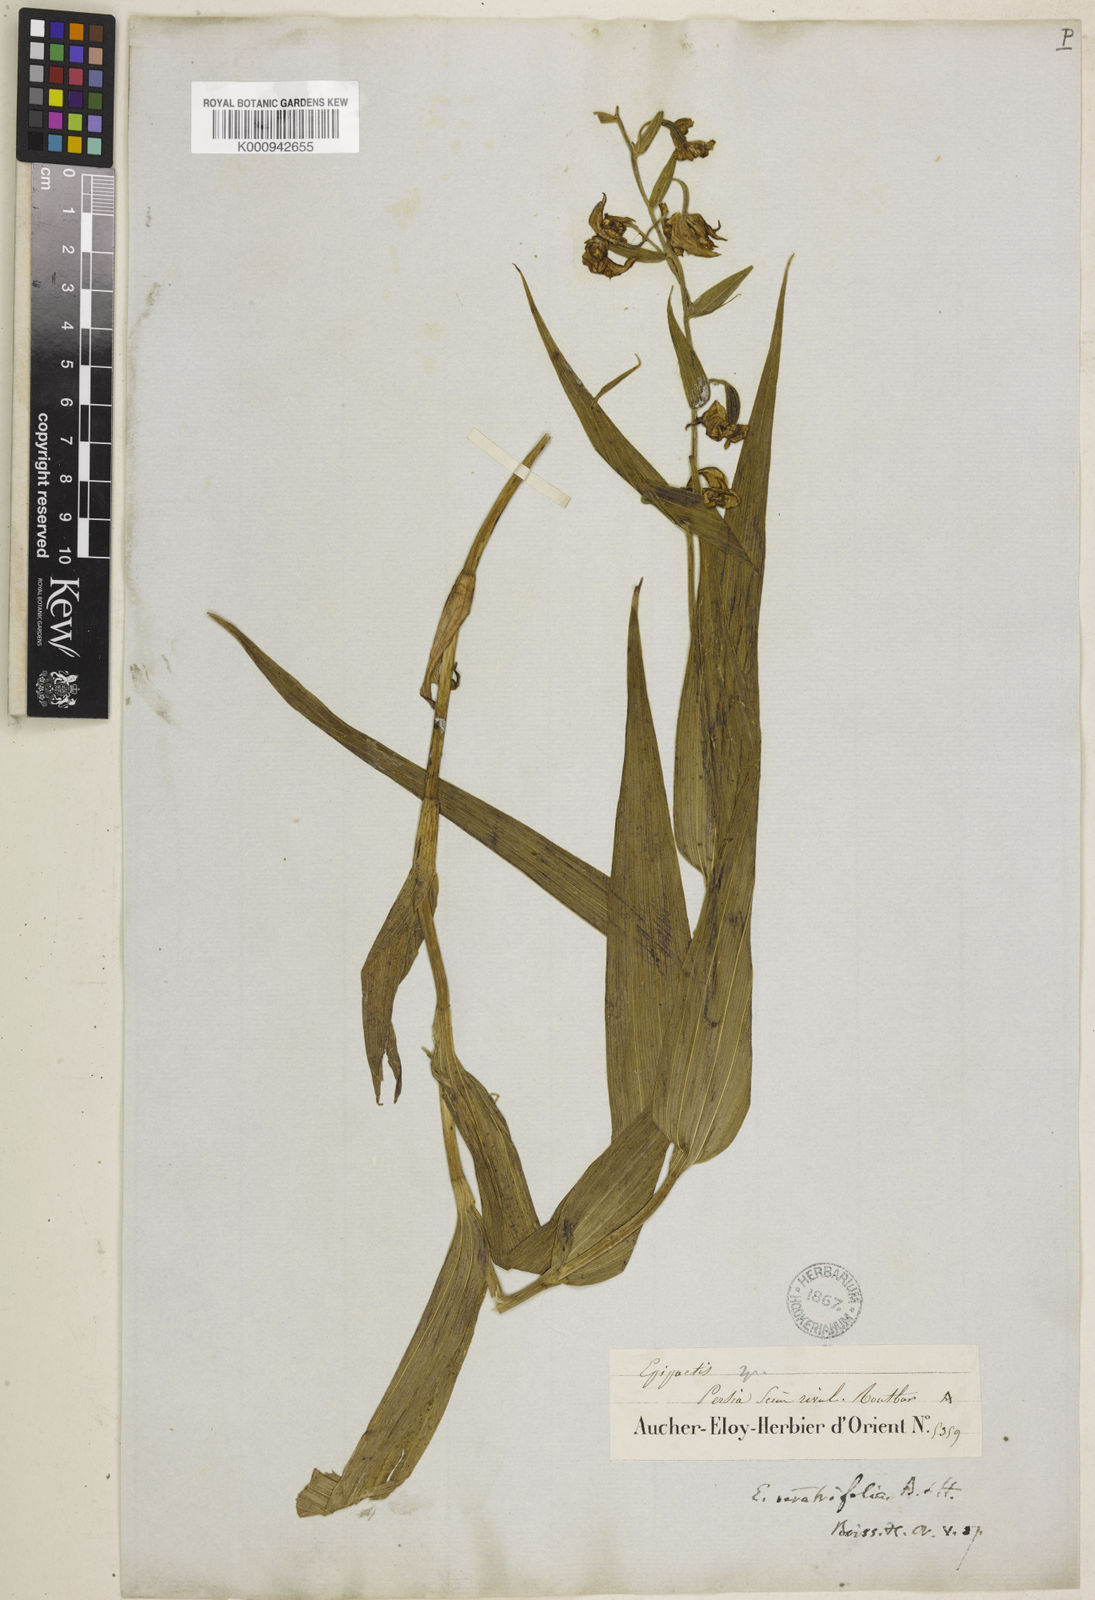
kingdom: Plantae
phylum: Tracheophyta
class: Liliopsida
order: Asparagales
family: Orchidaceae
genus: Epipactis
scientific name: Epipactis veratrifolia
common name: Eastern marsh helleborine
